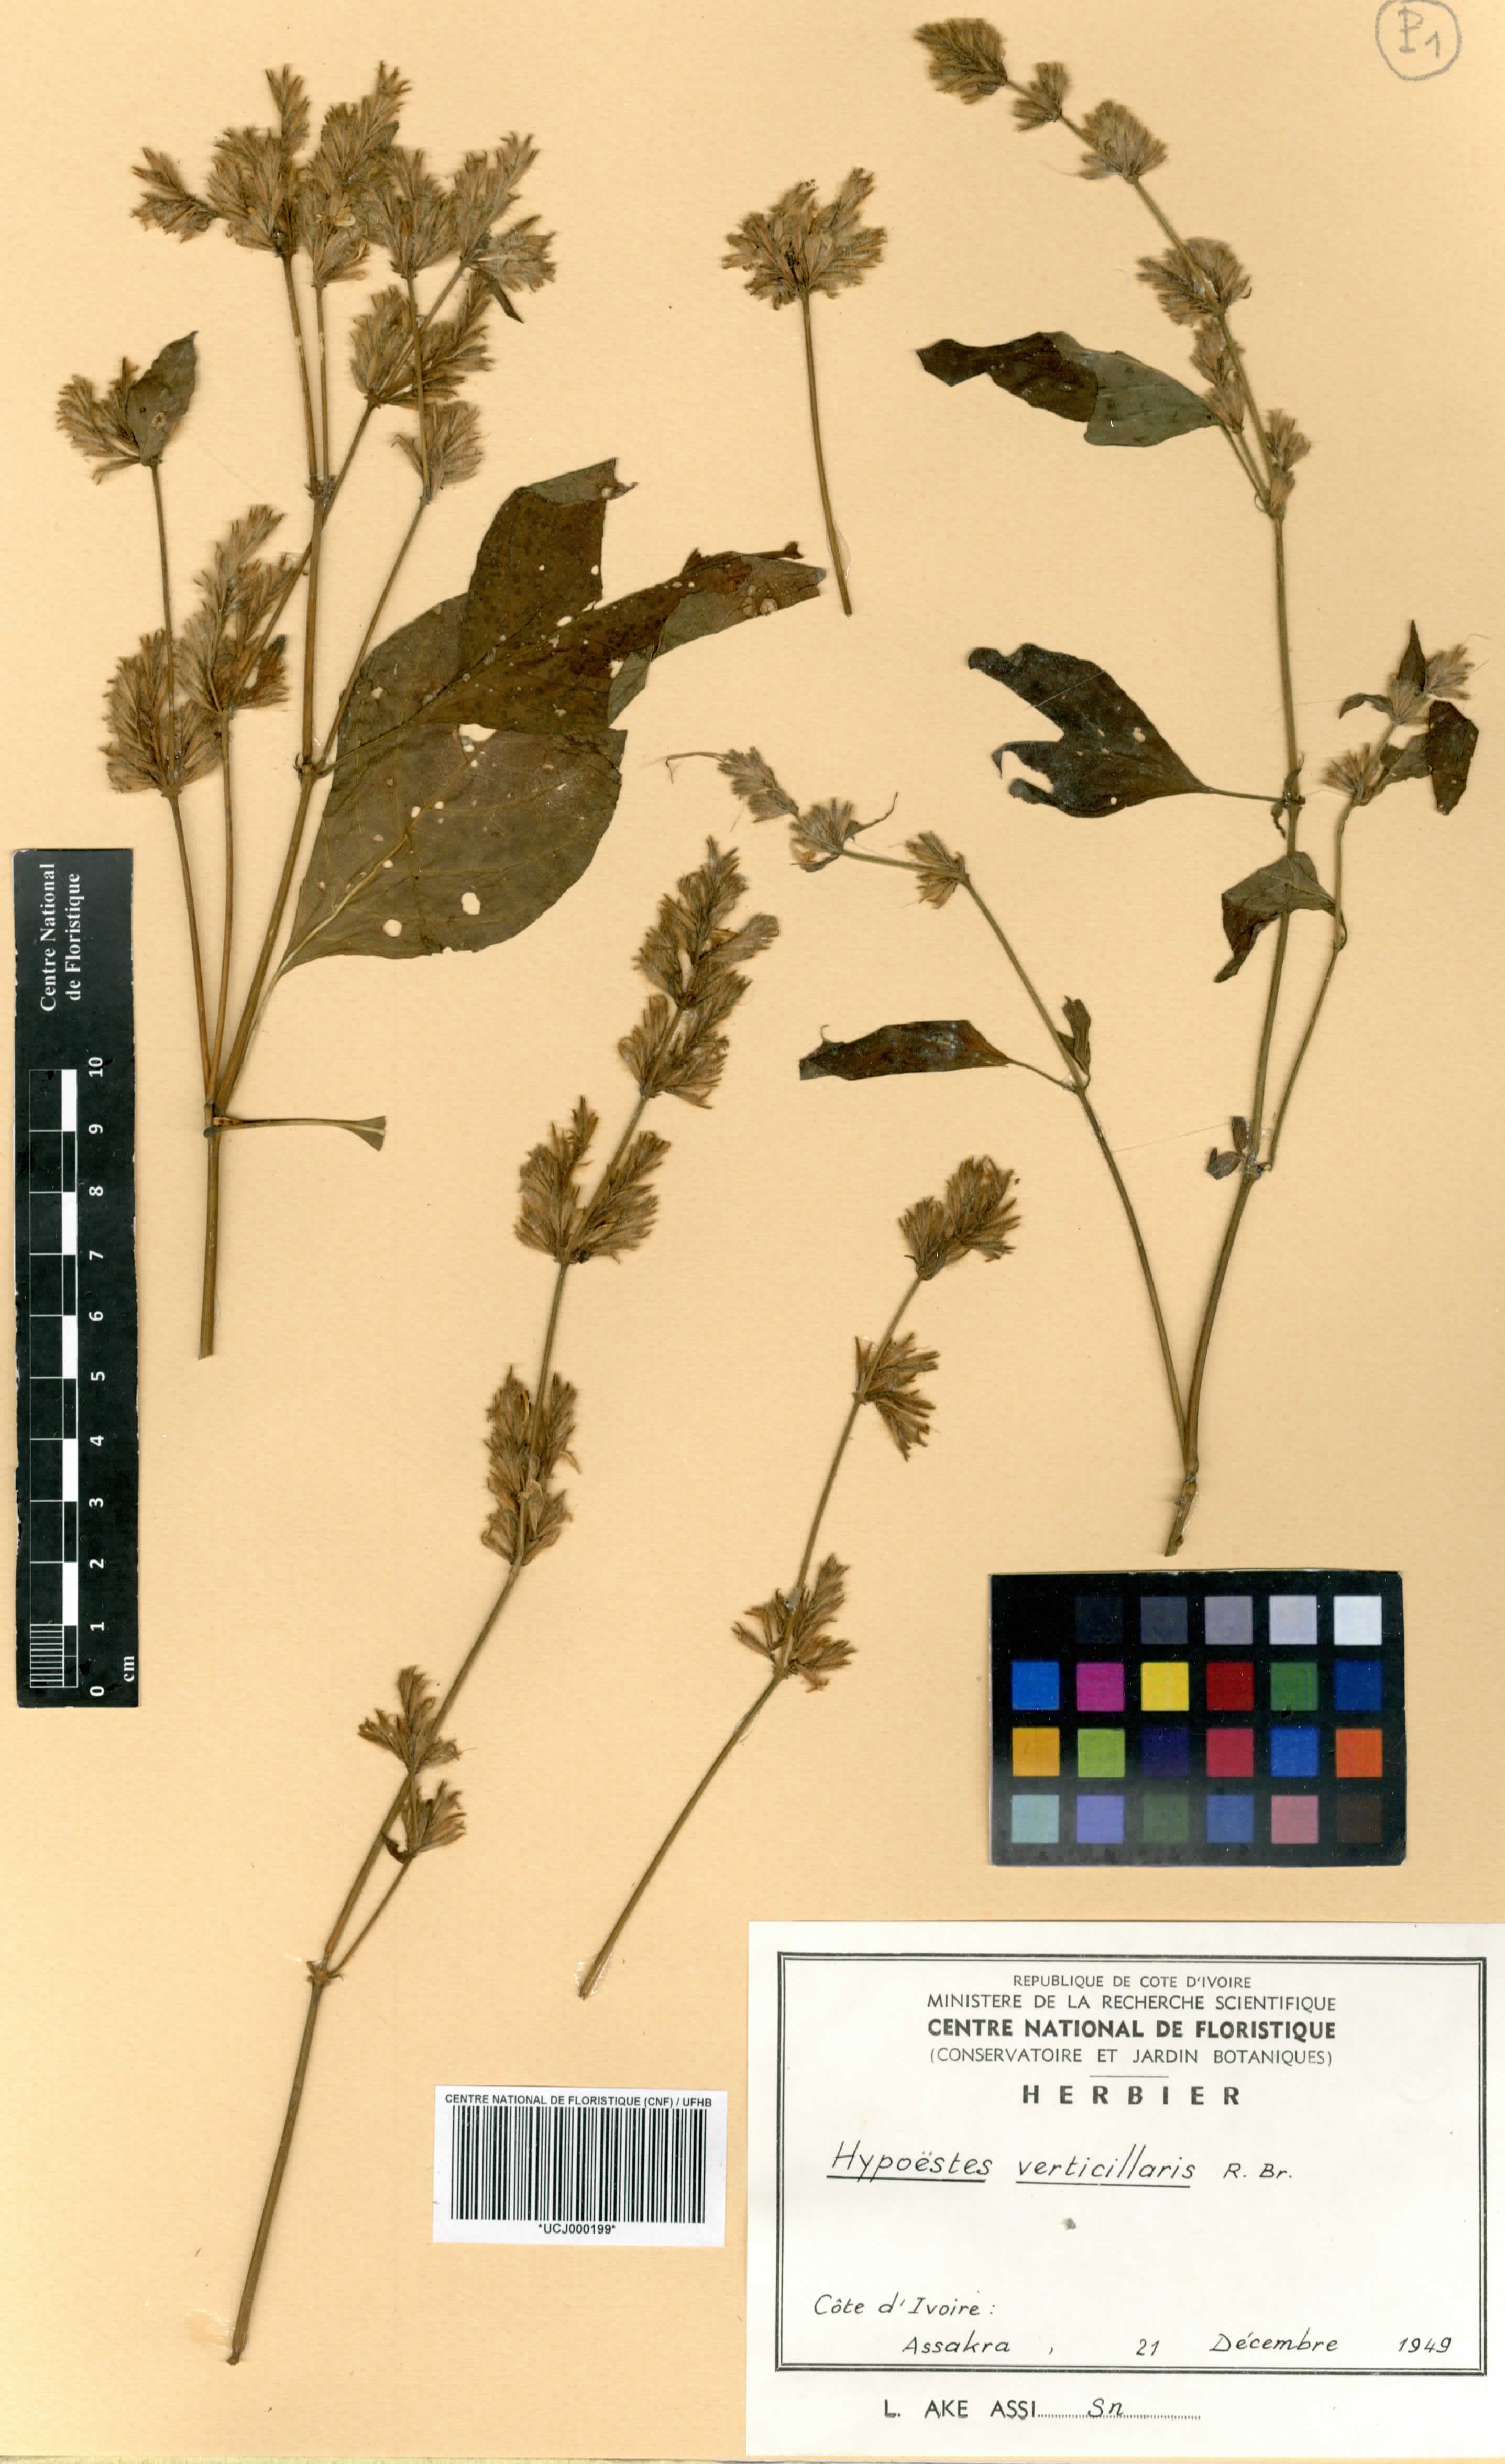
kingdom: Plantae
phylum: Tracheophyta
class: Magnoliopsida
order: Lamiales
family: Acanthaceae
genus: Hypoestes
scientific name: Hypoestes aristata
